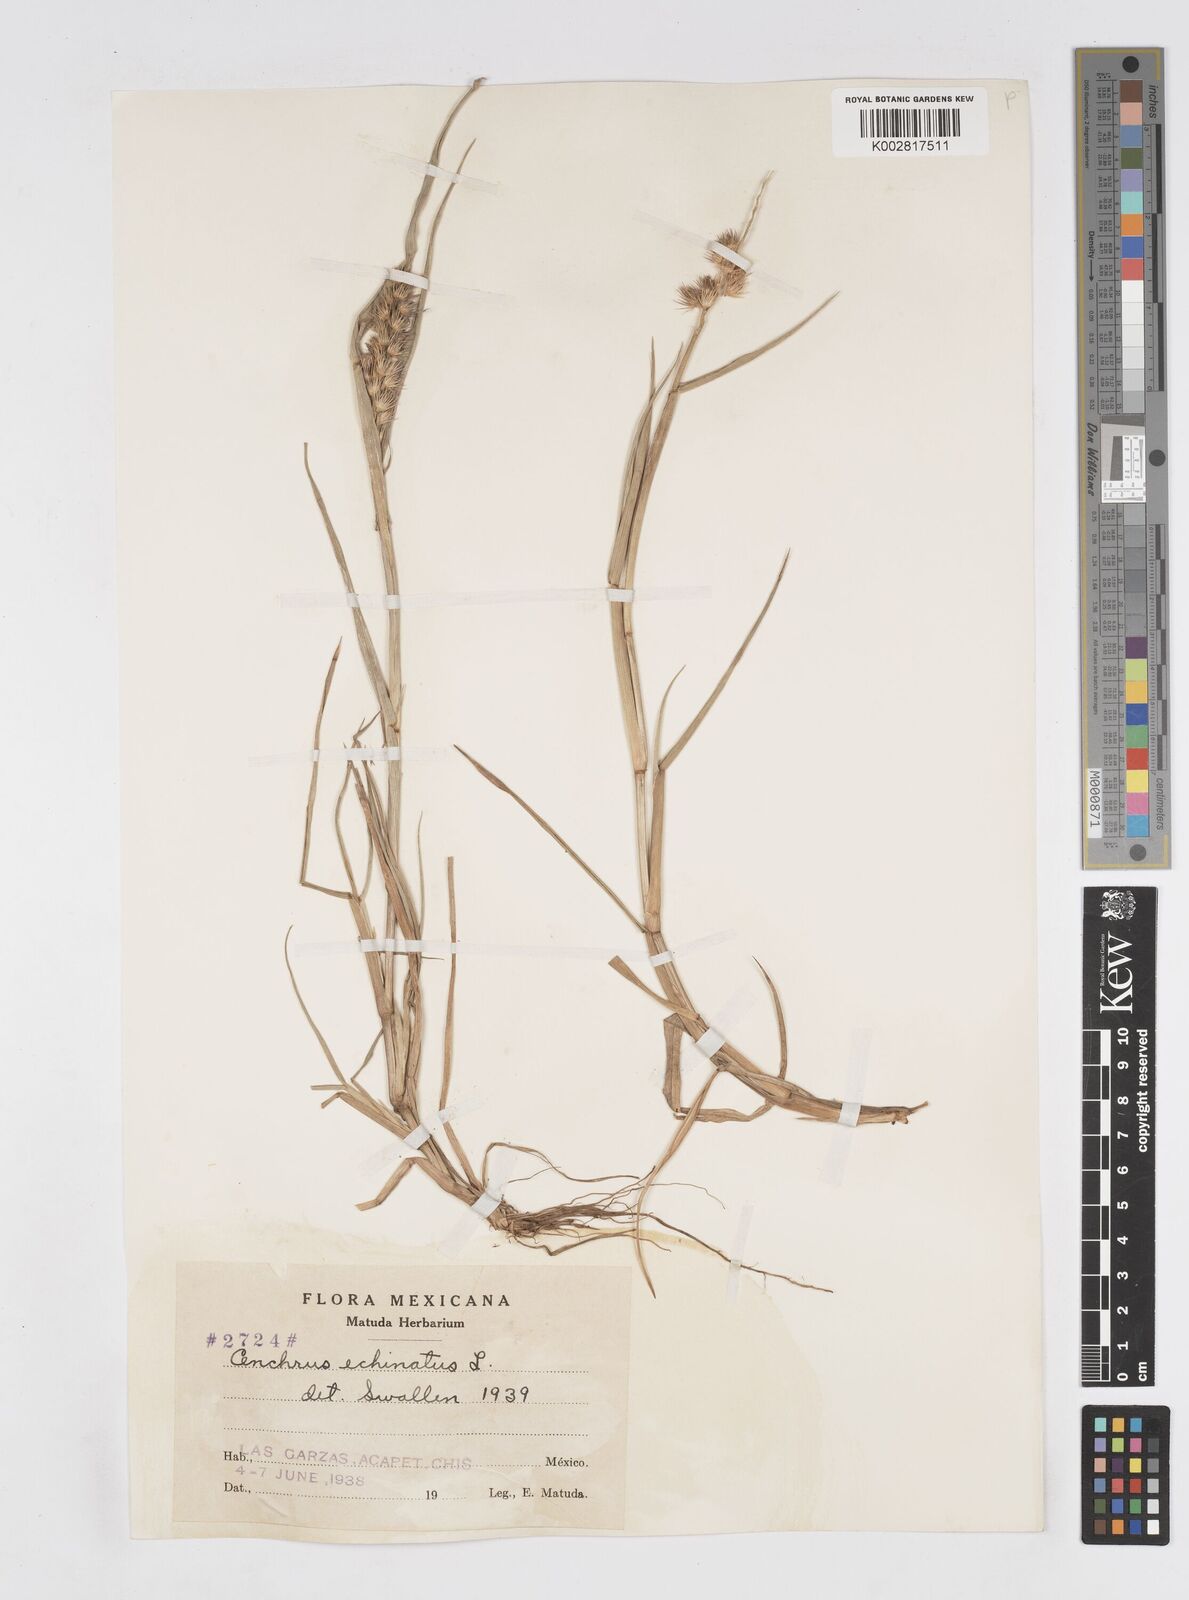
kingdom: Plantae
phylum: Tracheophyta
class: Liliopsida
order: Poales
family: Poaceae
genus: Cenchrus
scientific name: Cenchrus
